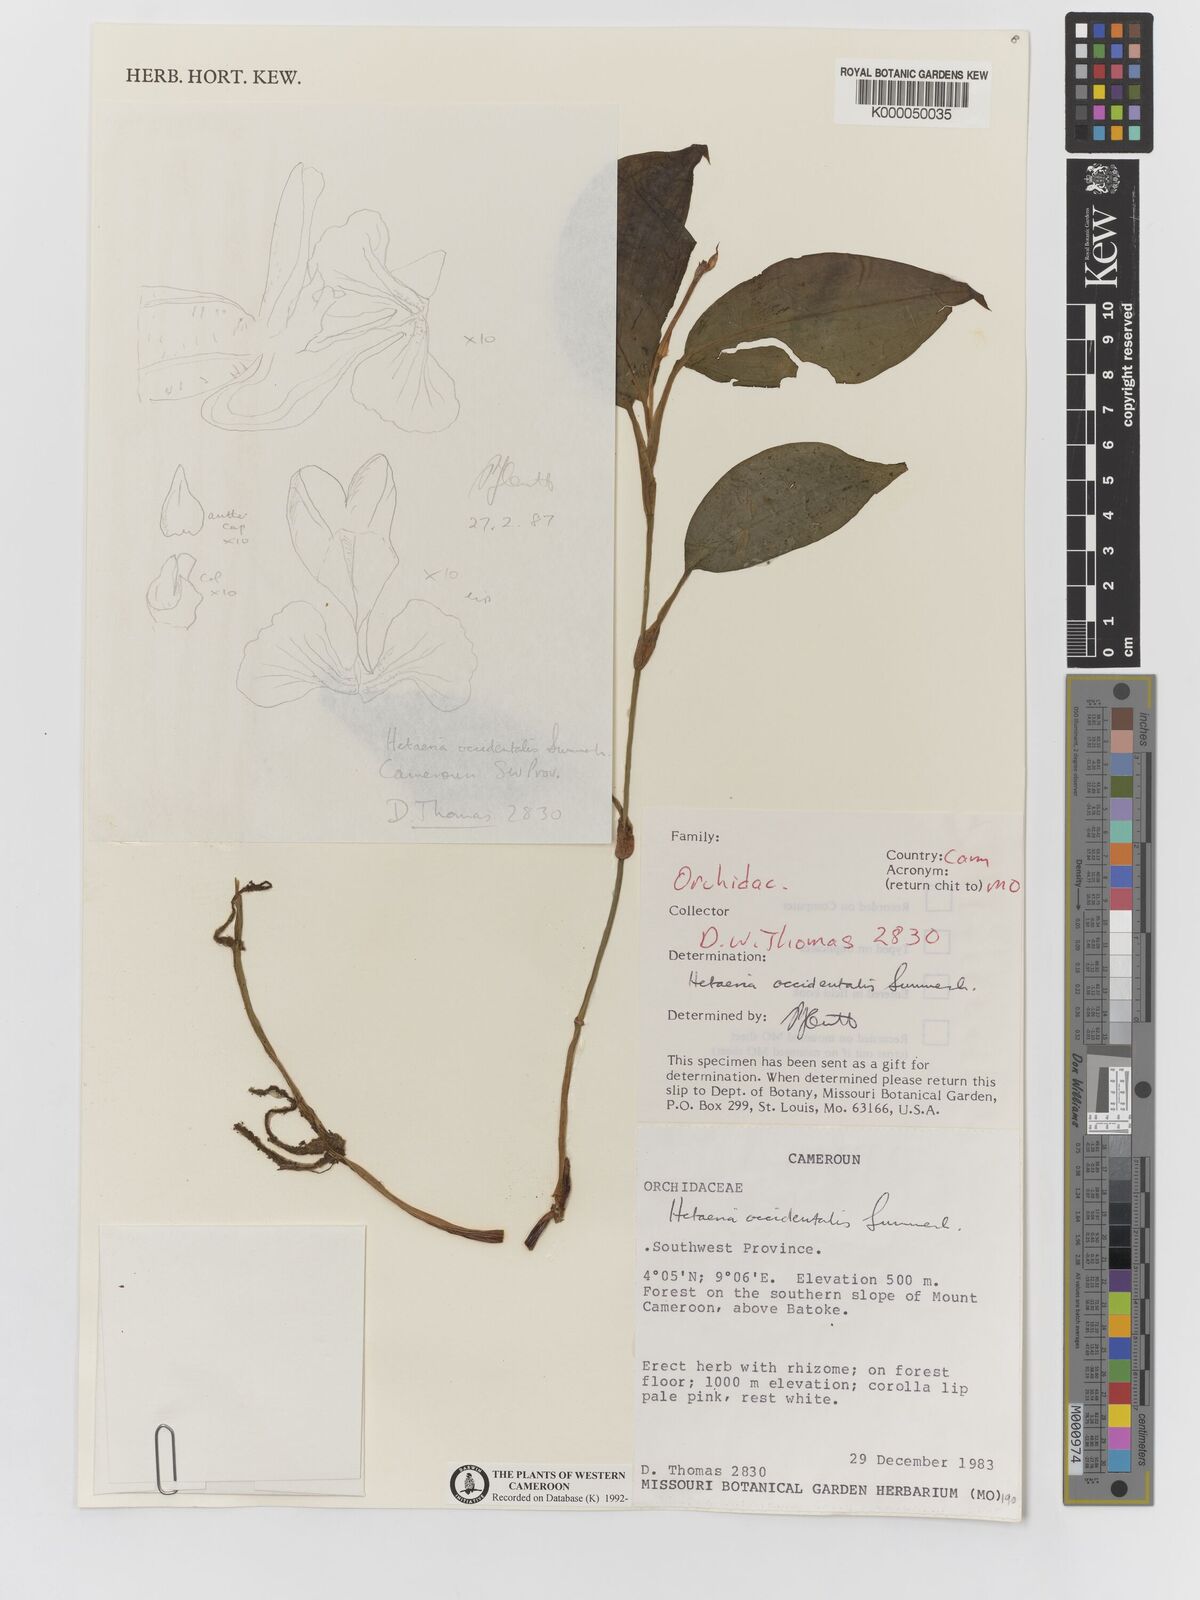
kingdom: Plantae
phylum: Tracheophyta
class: Liliopsida
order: Asparagales
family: Orchidaceae
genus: Hetaeria
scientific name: Hetaeria occidentalis
